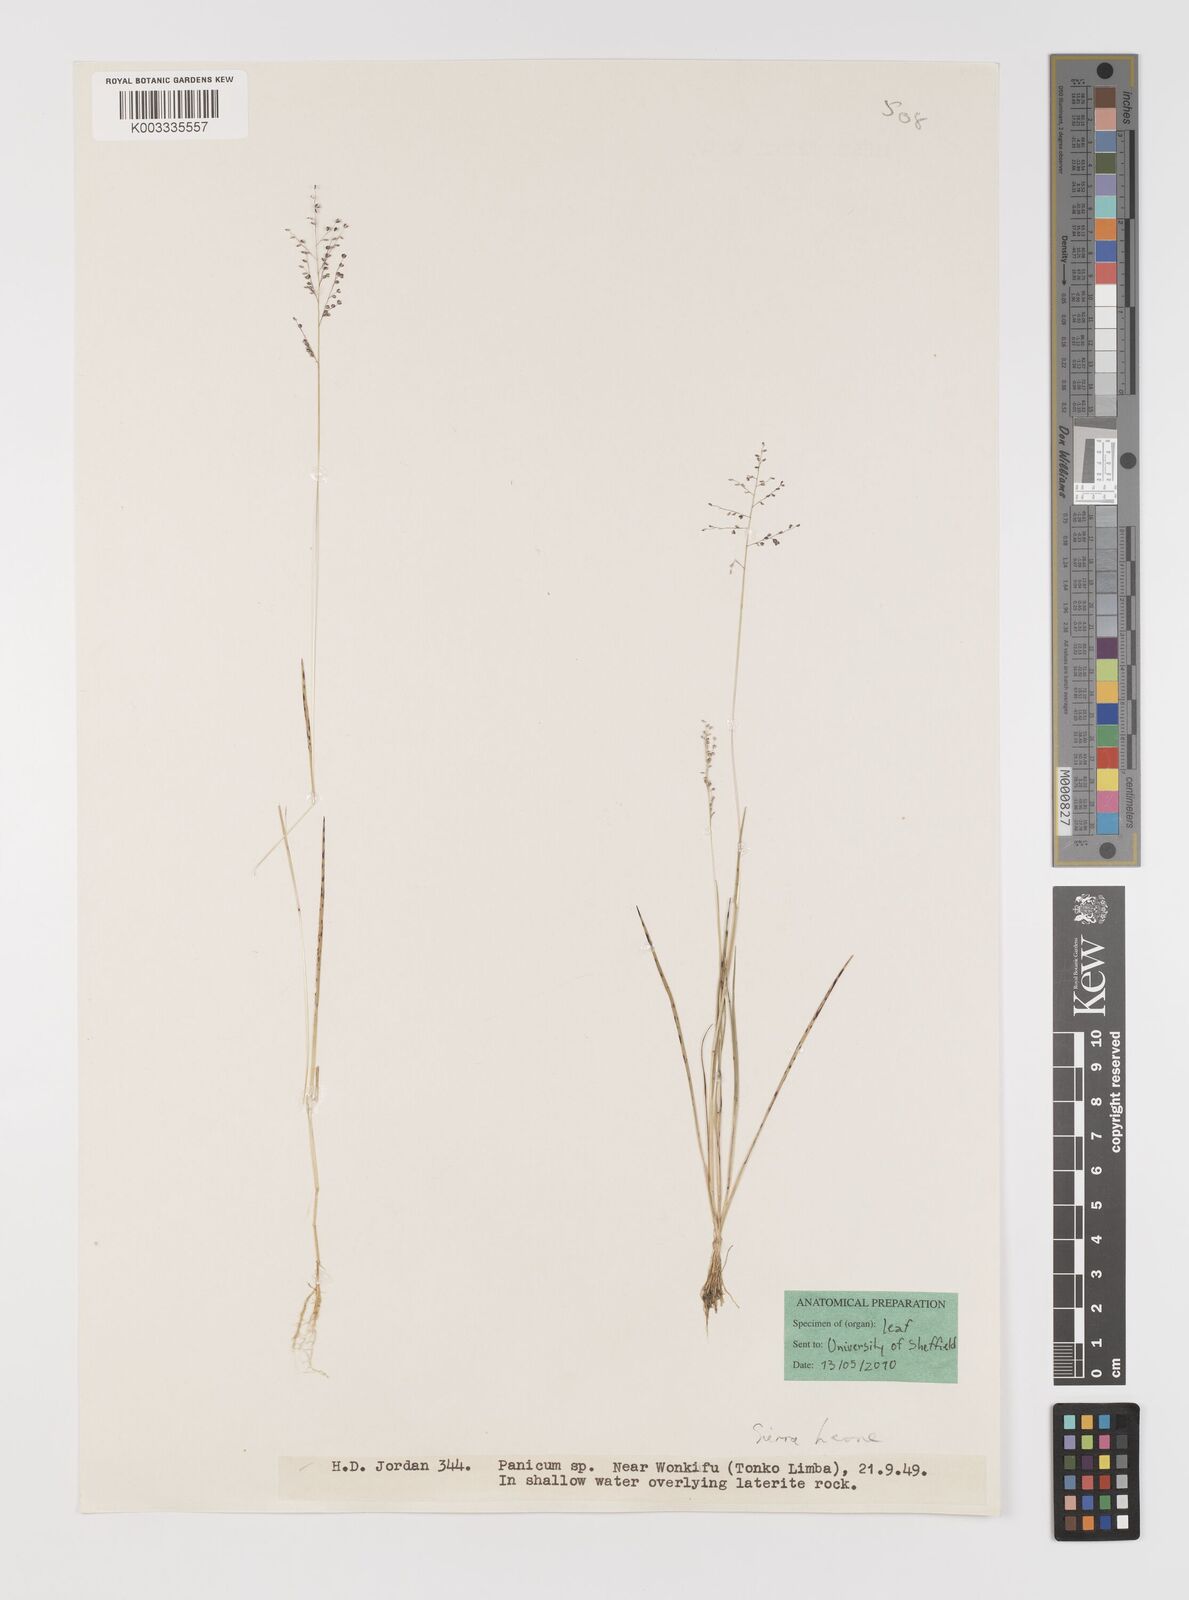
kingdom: Plantae
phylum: Tracheophyta
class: Liliopsida
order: Poales
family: Poaceae
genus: Panicum
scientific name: Panicum subtilissimum
